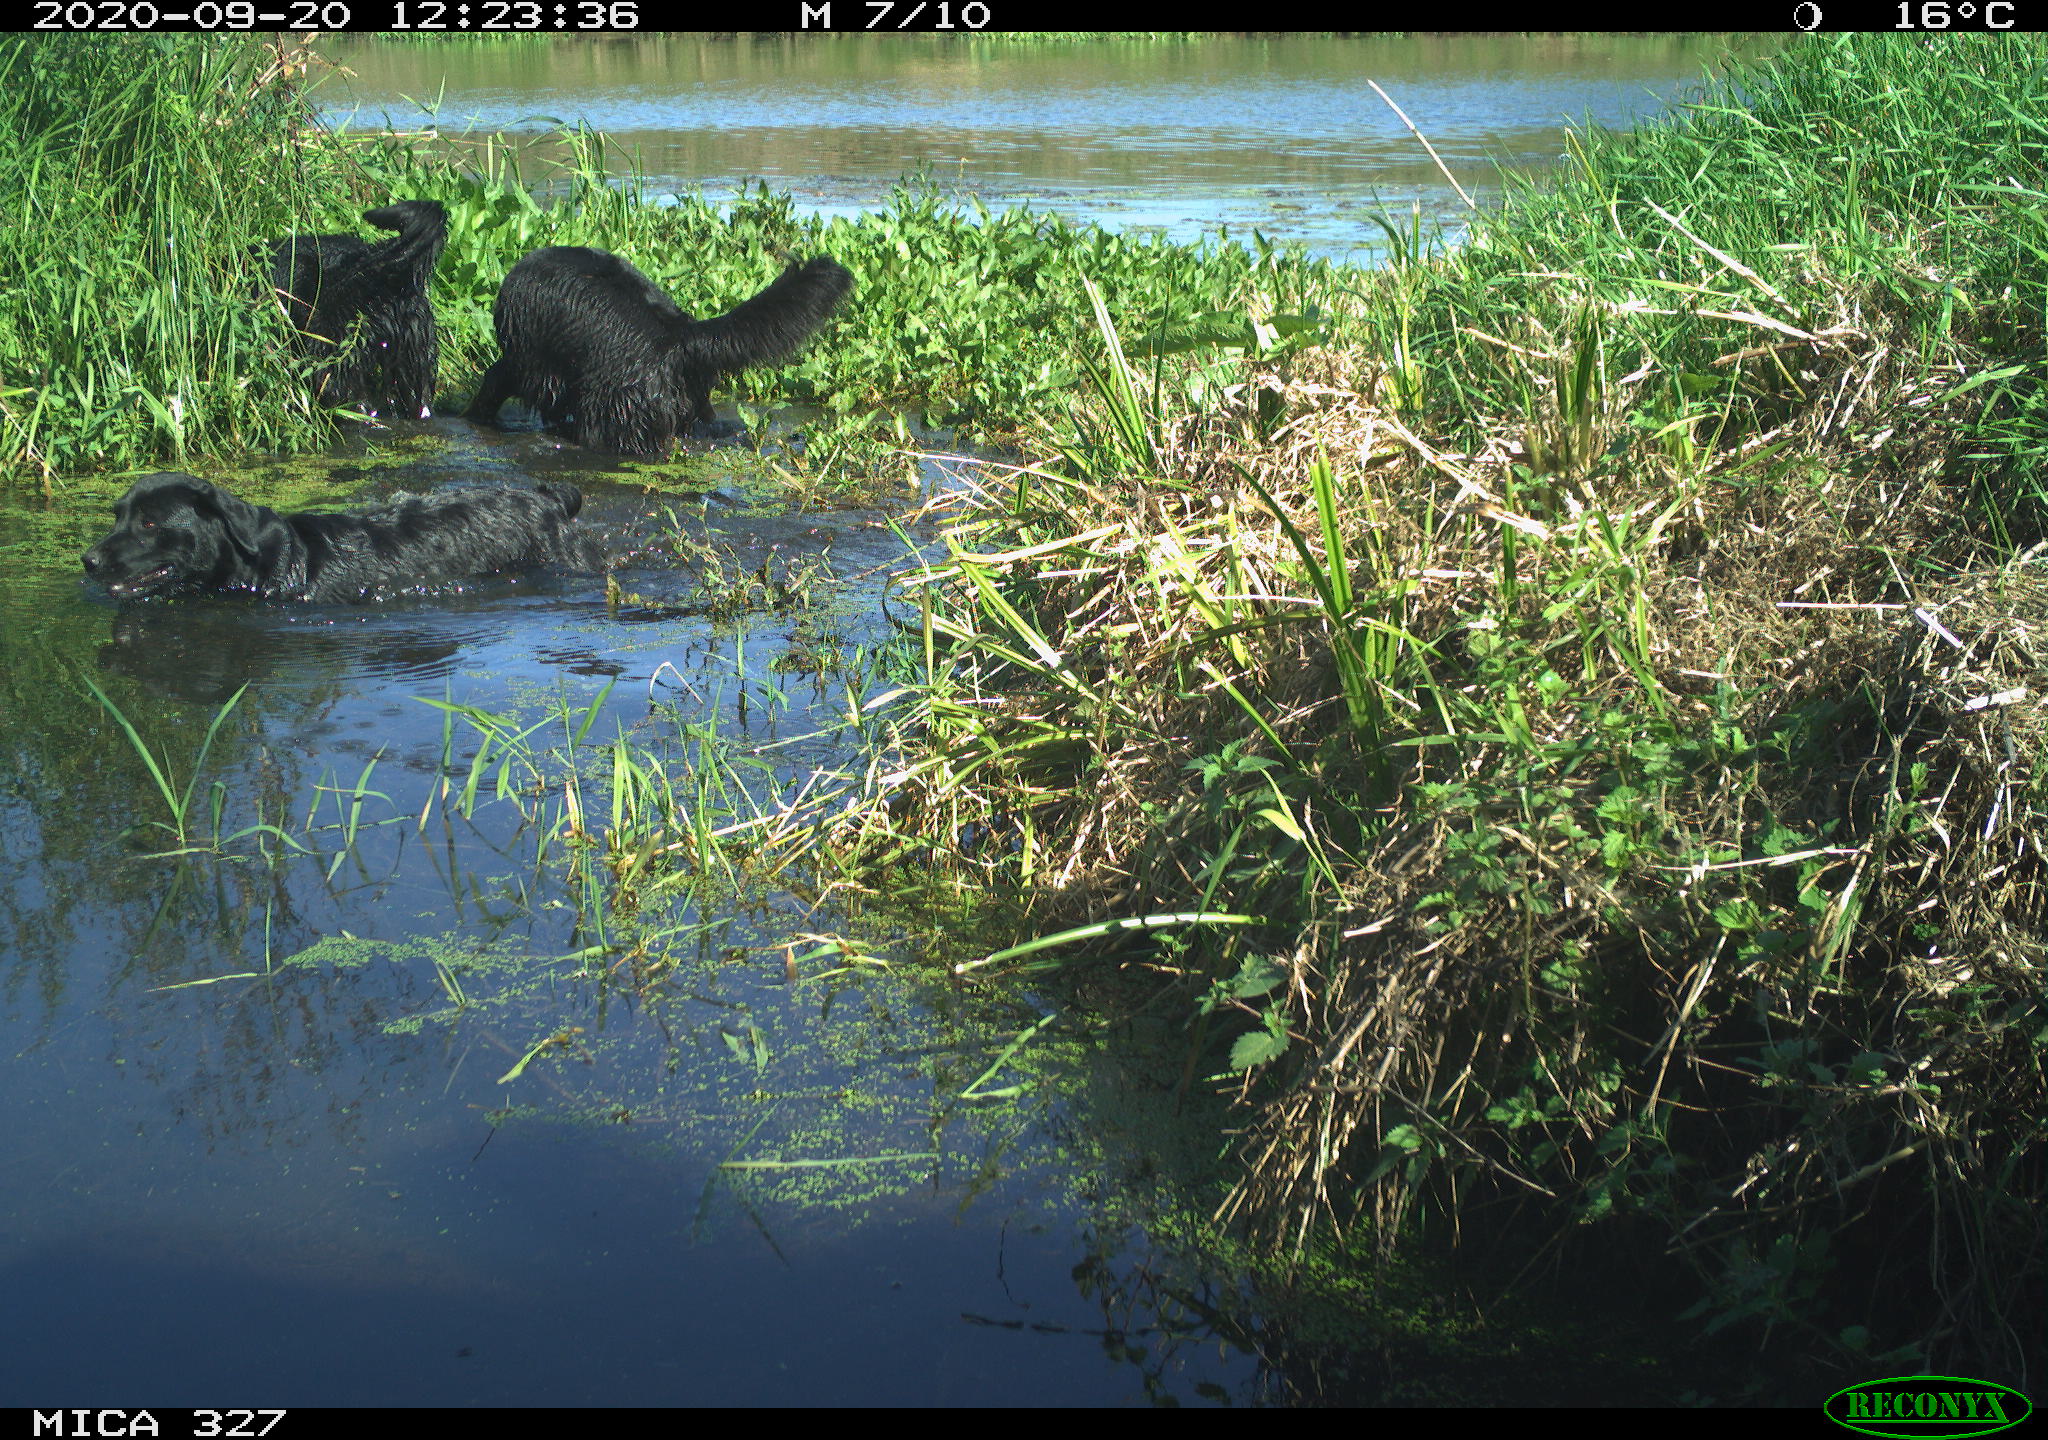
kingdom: Animalia
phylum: Chordata
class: Mammalia
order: Carnivora
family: Canidae
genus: Canis
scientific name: Canis lupus
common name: Gray wolf
